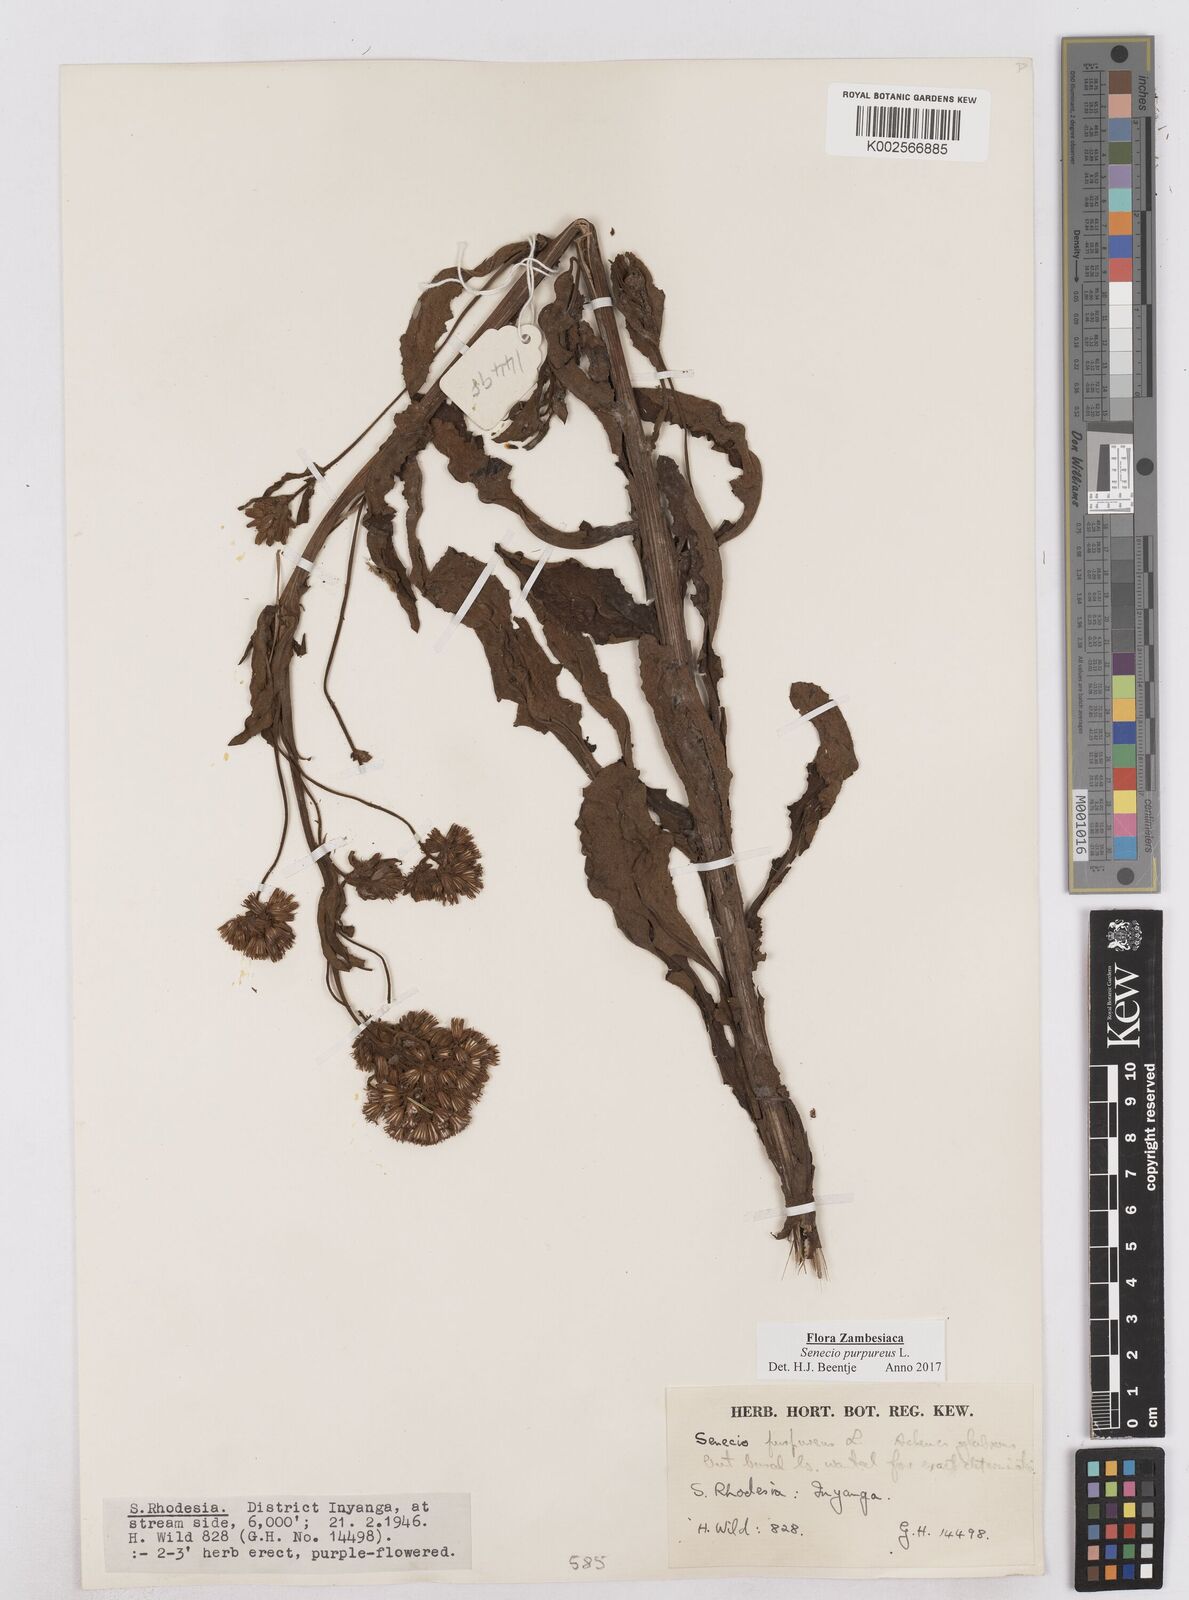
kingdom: Plantae
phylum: Tracheophyta
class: Magnoliopsida
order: Asterales
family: Asteraceae
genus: Senecio
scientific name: Senecio purpureus
